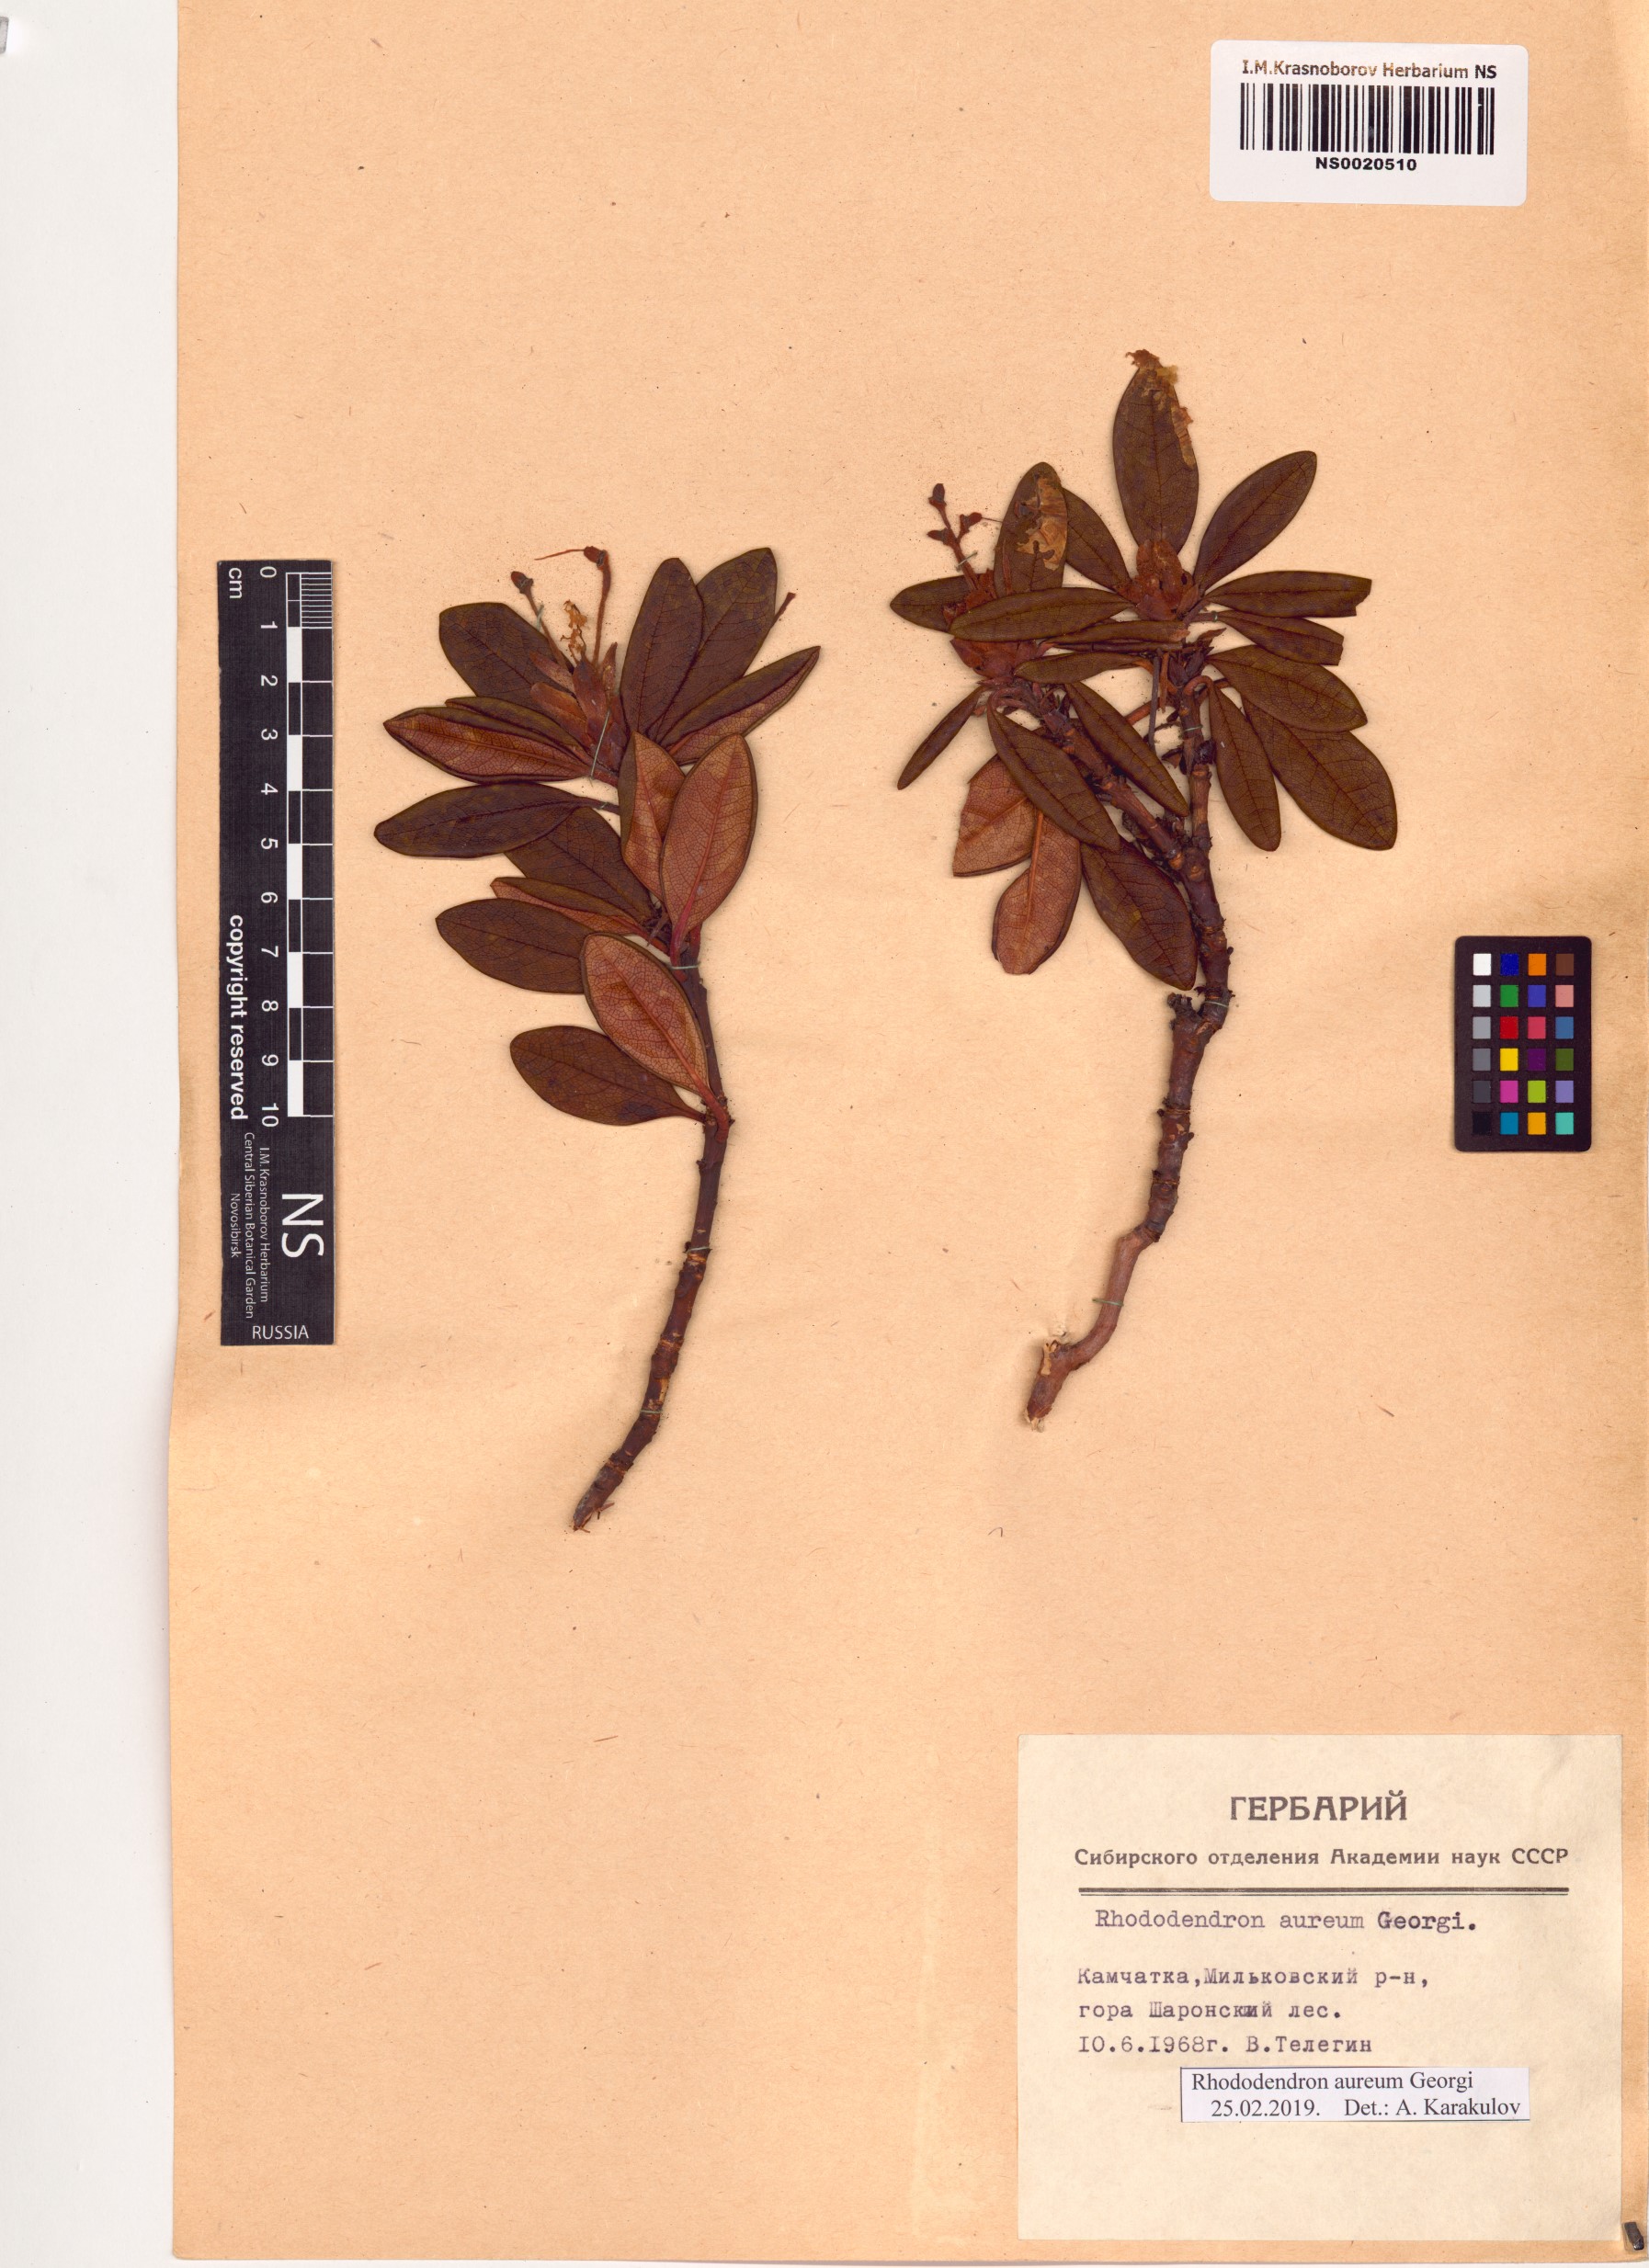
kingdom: Plantae
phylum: Tracheophyta
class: Magnoliopsida
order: Ericales
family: Ericaceae
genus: Rhododendron
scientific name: Rhododendron aureum
